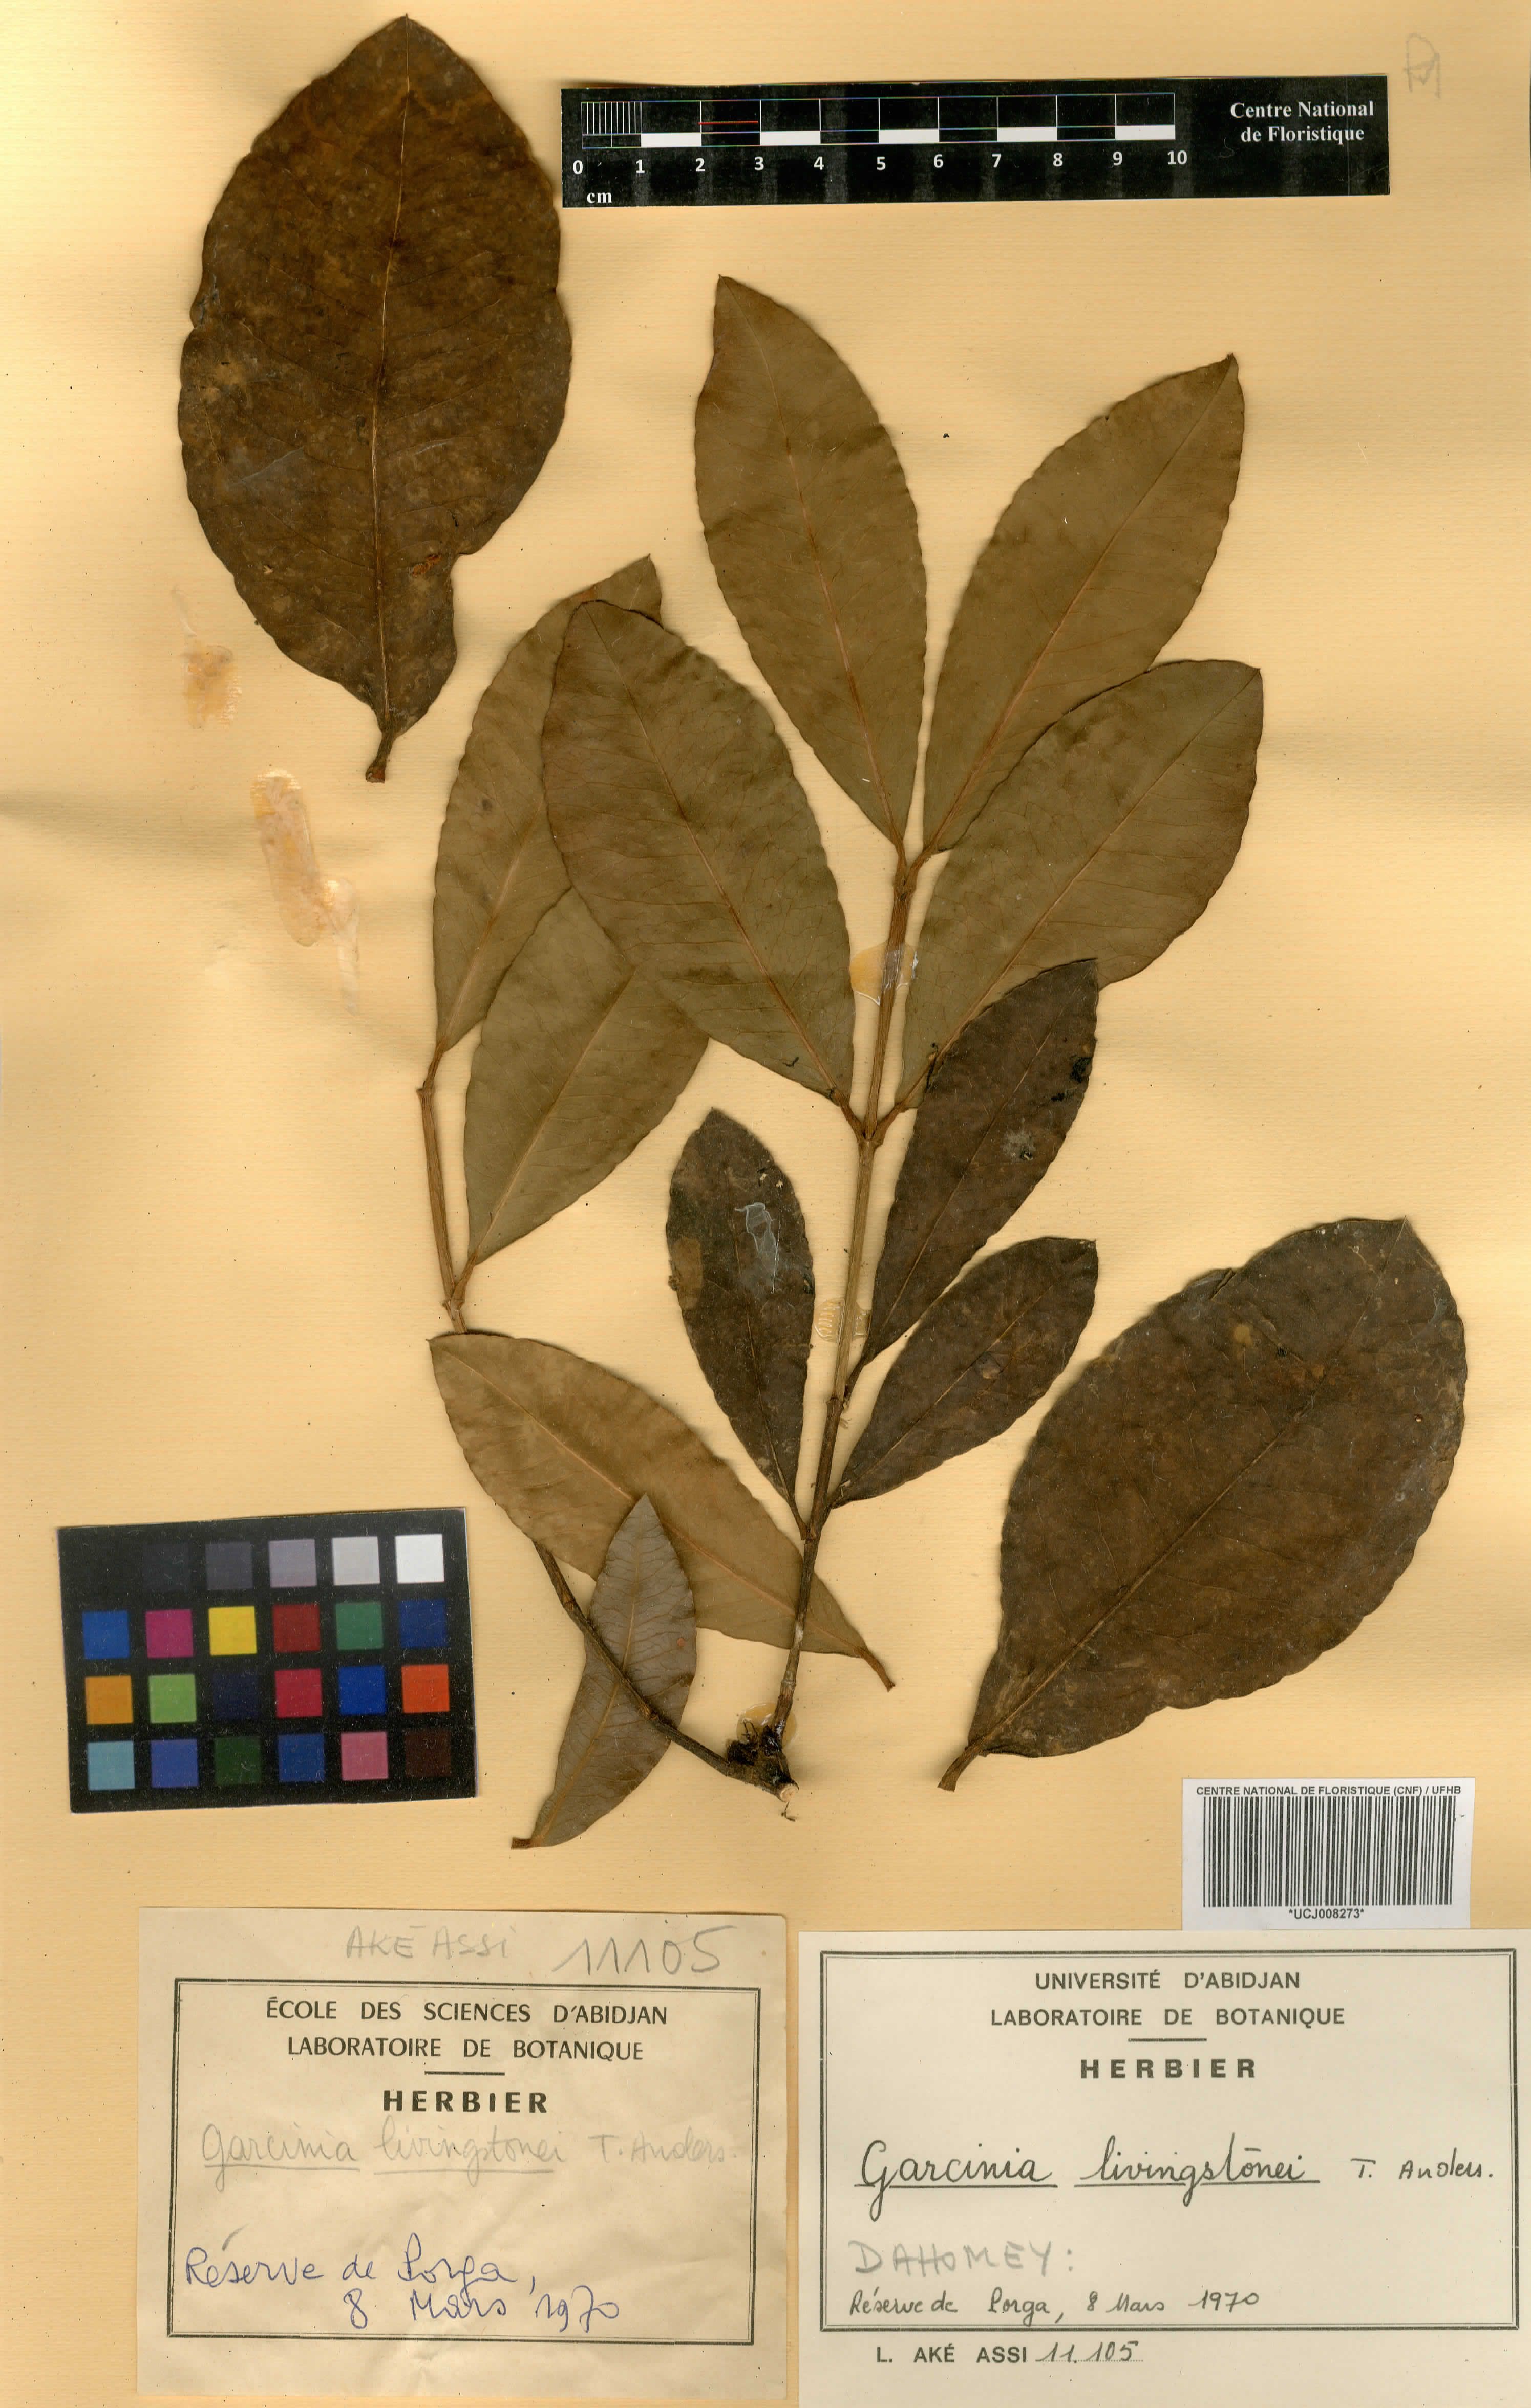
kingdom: Plantae
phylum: Tracheophyta
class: Magnoliopsida
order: Malpighiales
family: Clusiaceae
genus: Garcinia
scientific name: Garcinia livingstonei
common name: African mangosteen
